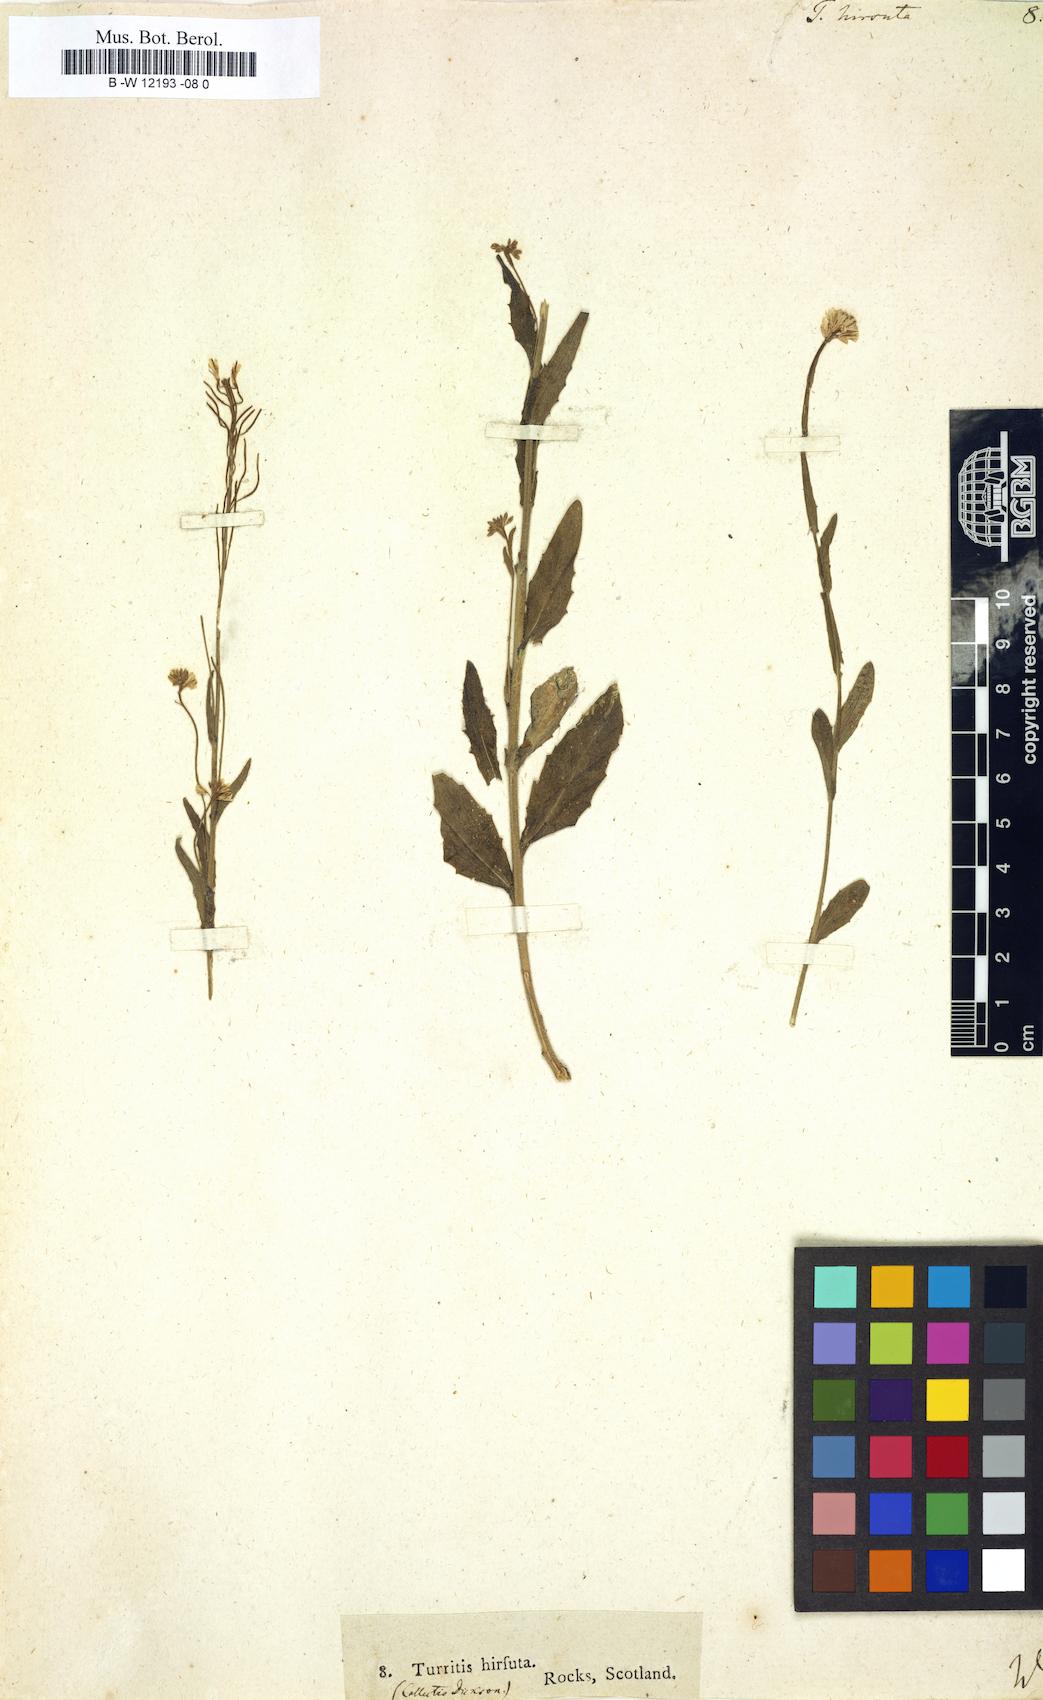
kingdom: Plantae
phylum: Tracheophyta
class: Magnoliopsida
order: Brassicales
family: Brassicaceae
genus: Turritis
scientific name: Turritis hirsuta
